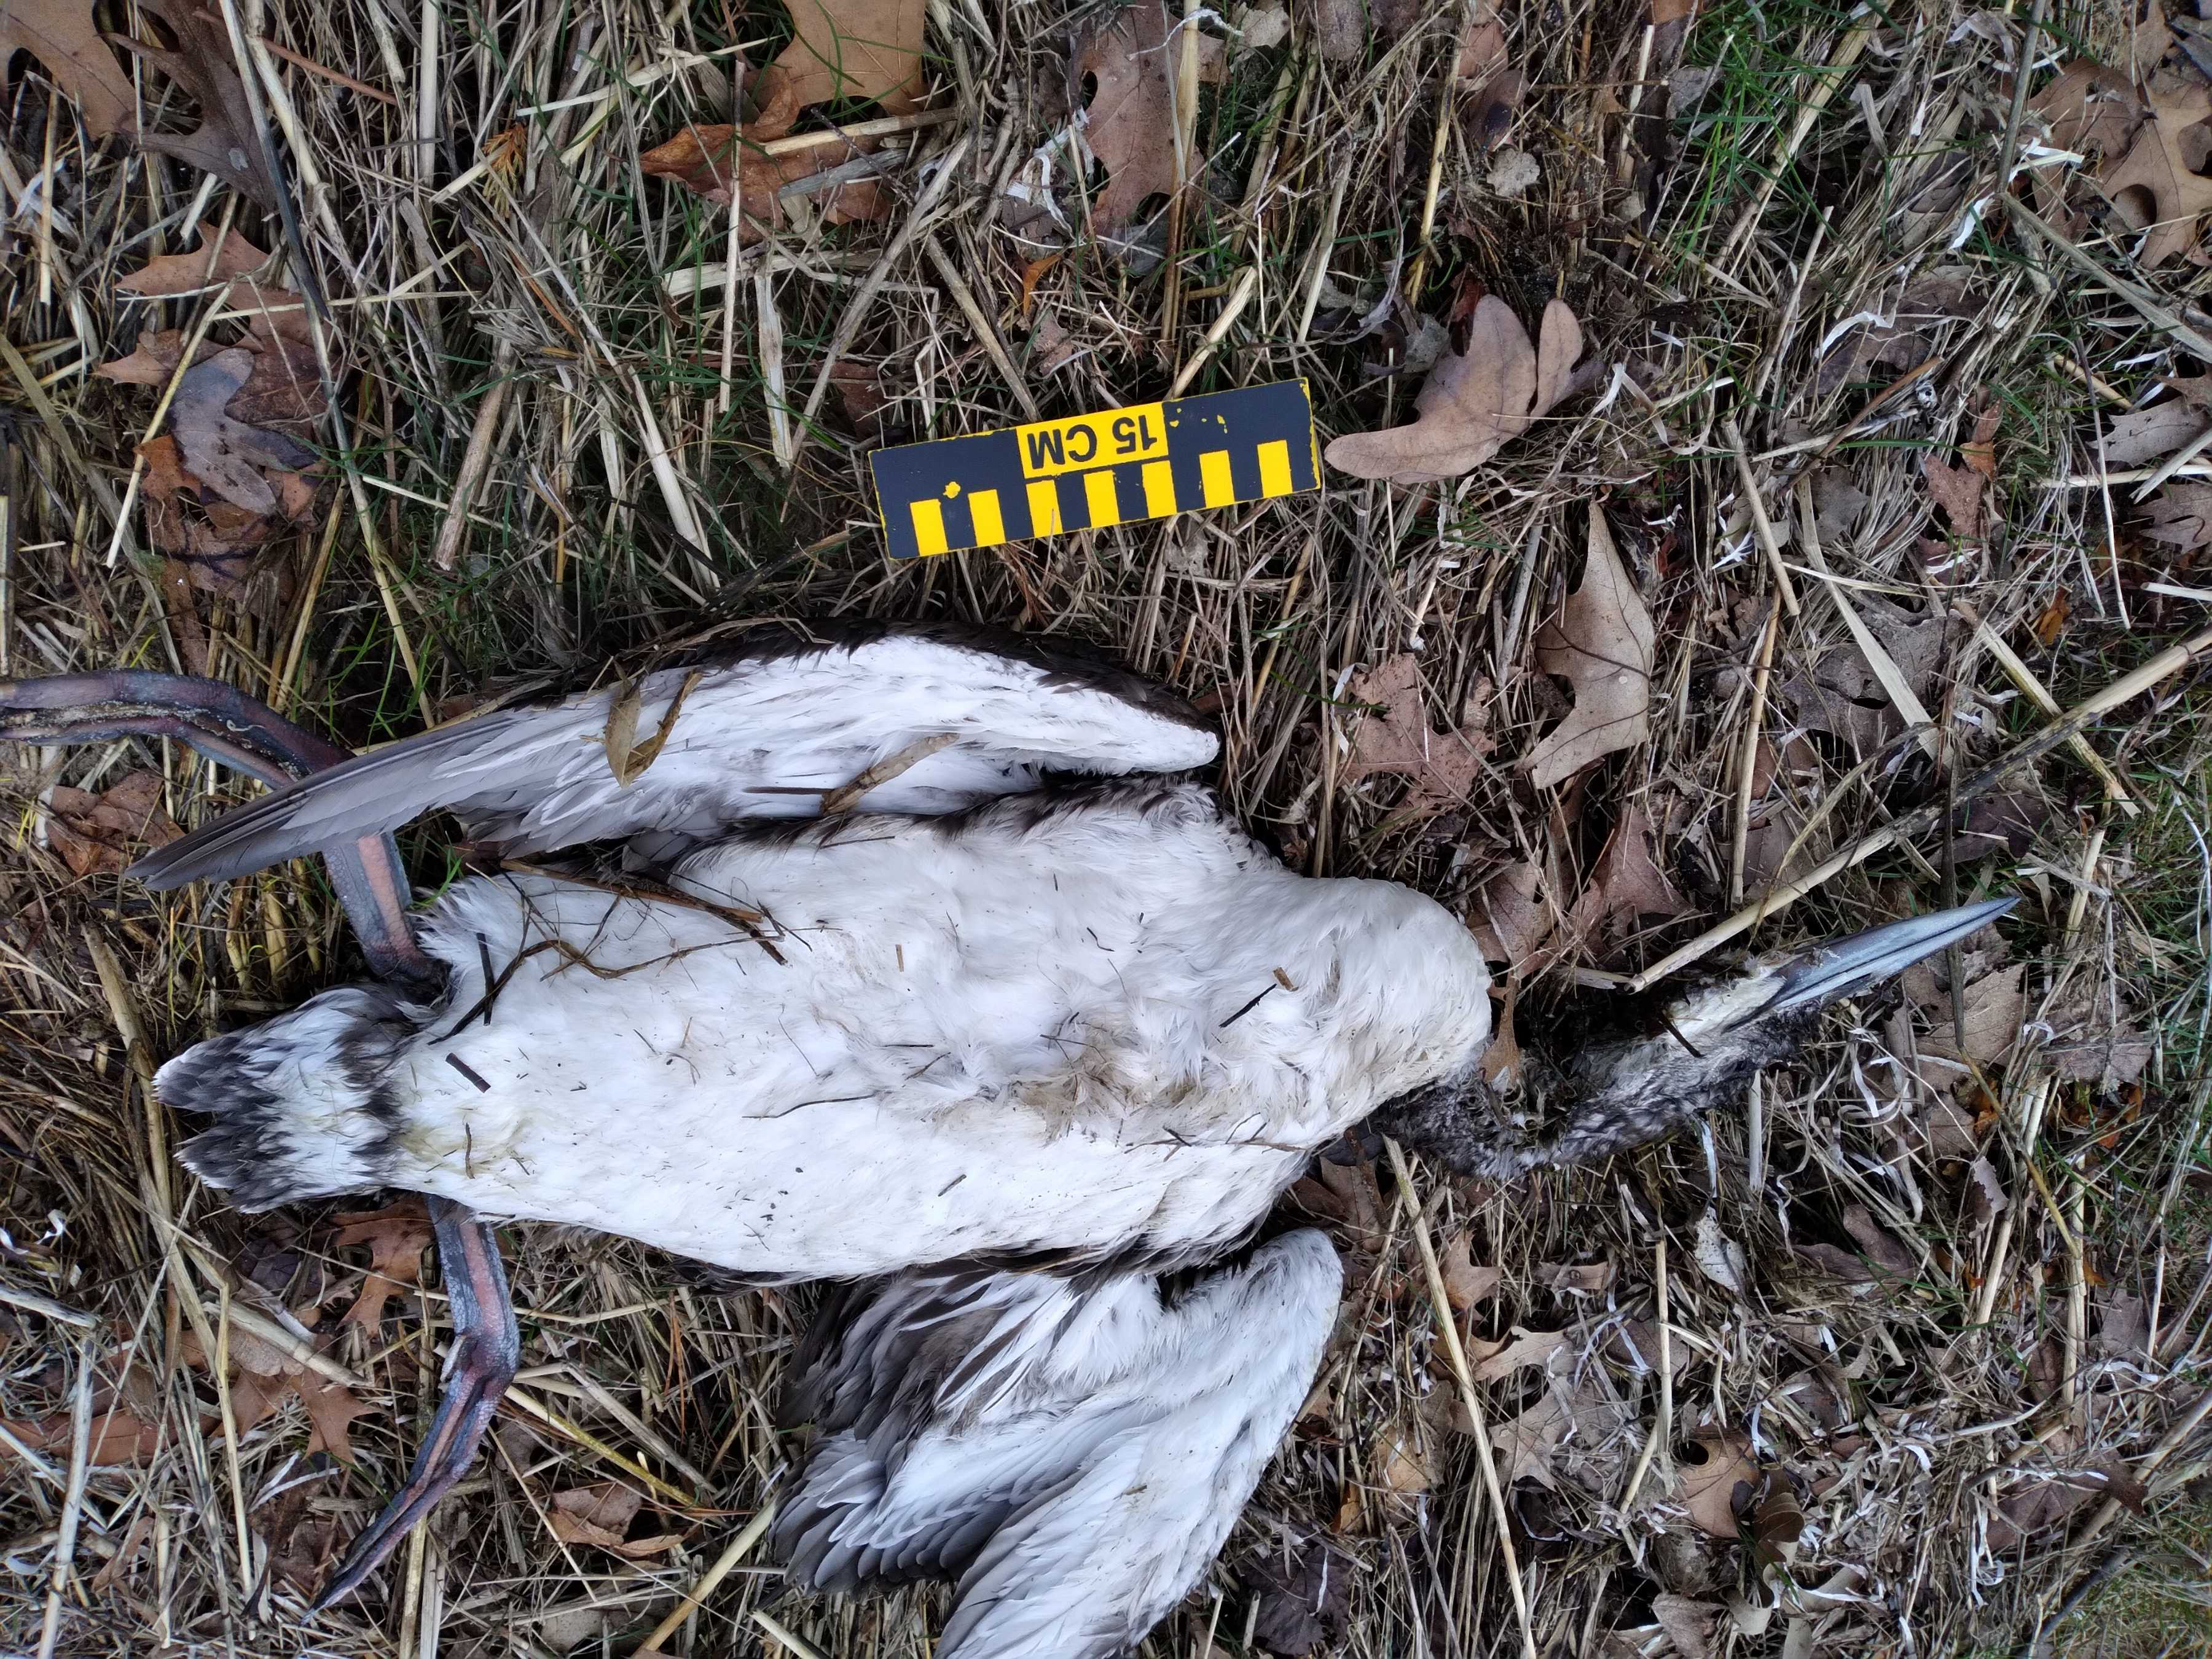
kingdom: Animalia
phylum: Chordata
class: Aves
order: Gaviiformes
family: Gaviidae
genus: Gavia
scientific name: Gavia stellata
